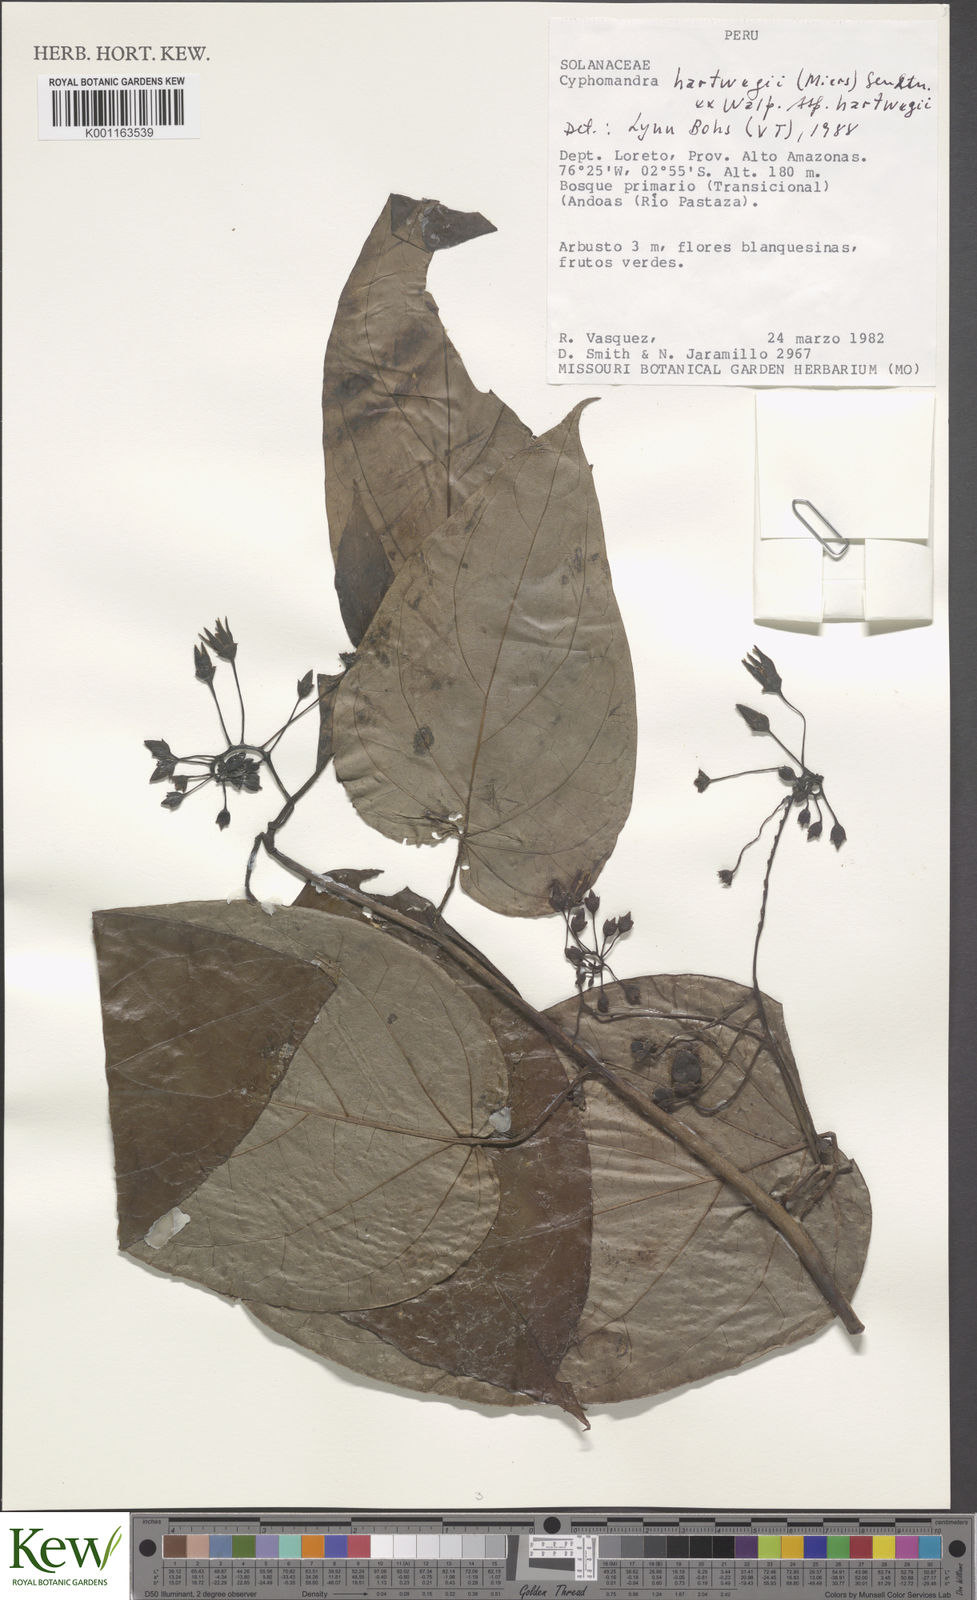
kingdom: Plantae
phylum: Tracheophyta
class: Magnoliopsida
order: Solanales
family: Solanaceae
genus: Solanum
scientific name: Solanum splendens
